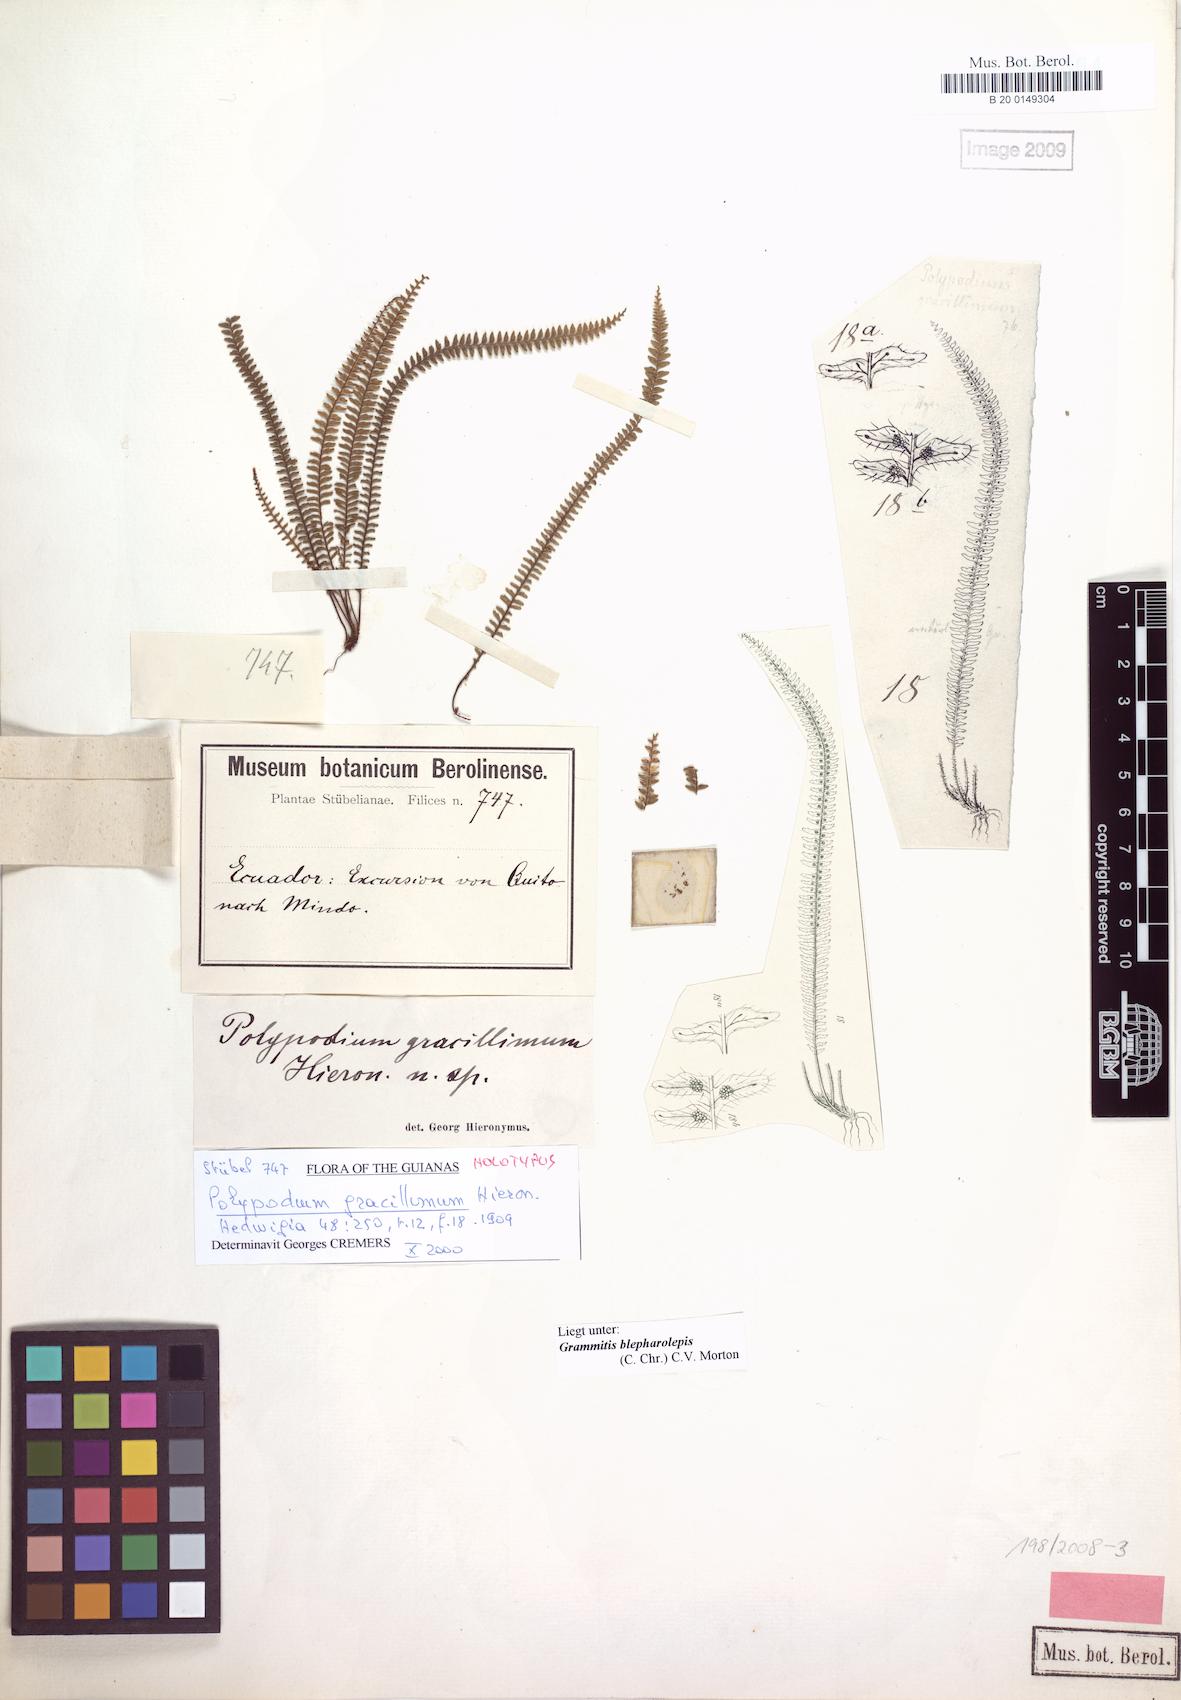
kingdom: Plantae
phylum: Tracheophyta
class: Polypodiopsida
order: Polypodiales
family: Polypodiaceae
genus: Moranopteris
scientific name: Moranopteris taenifolia
